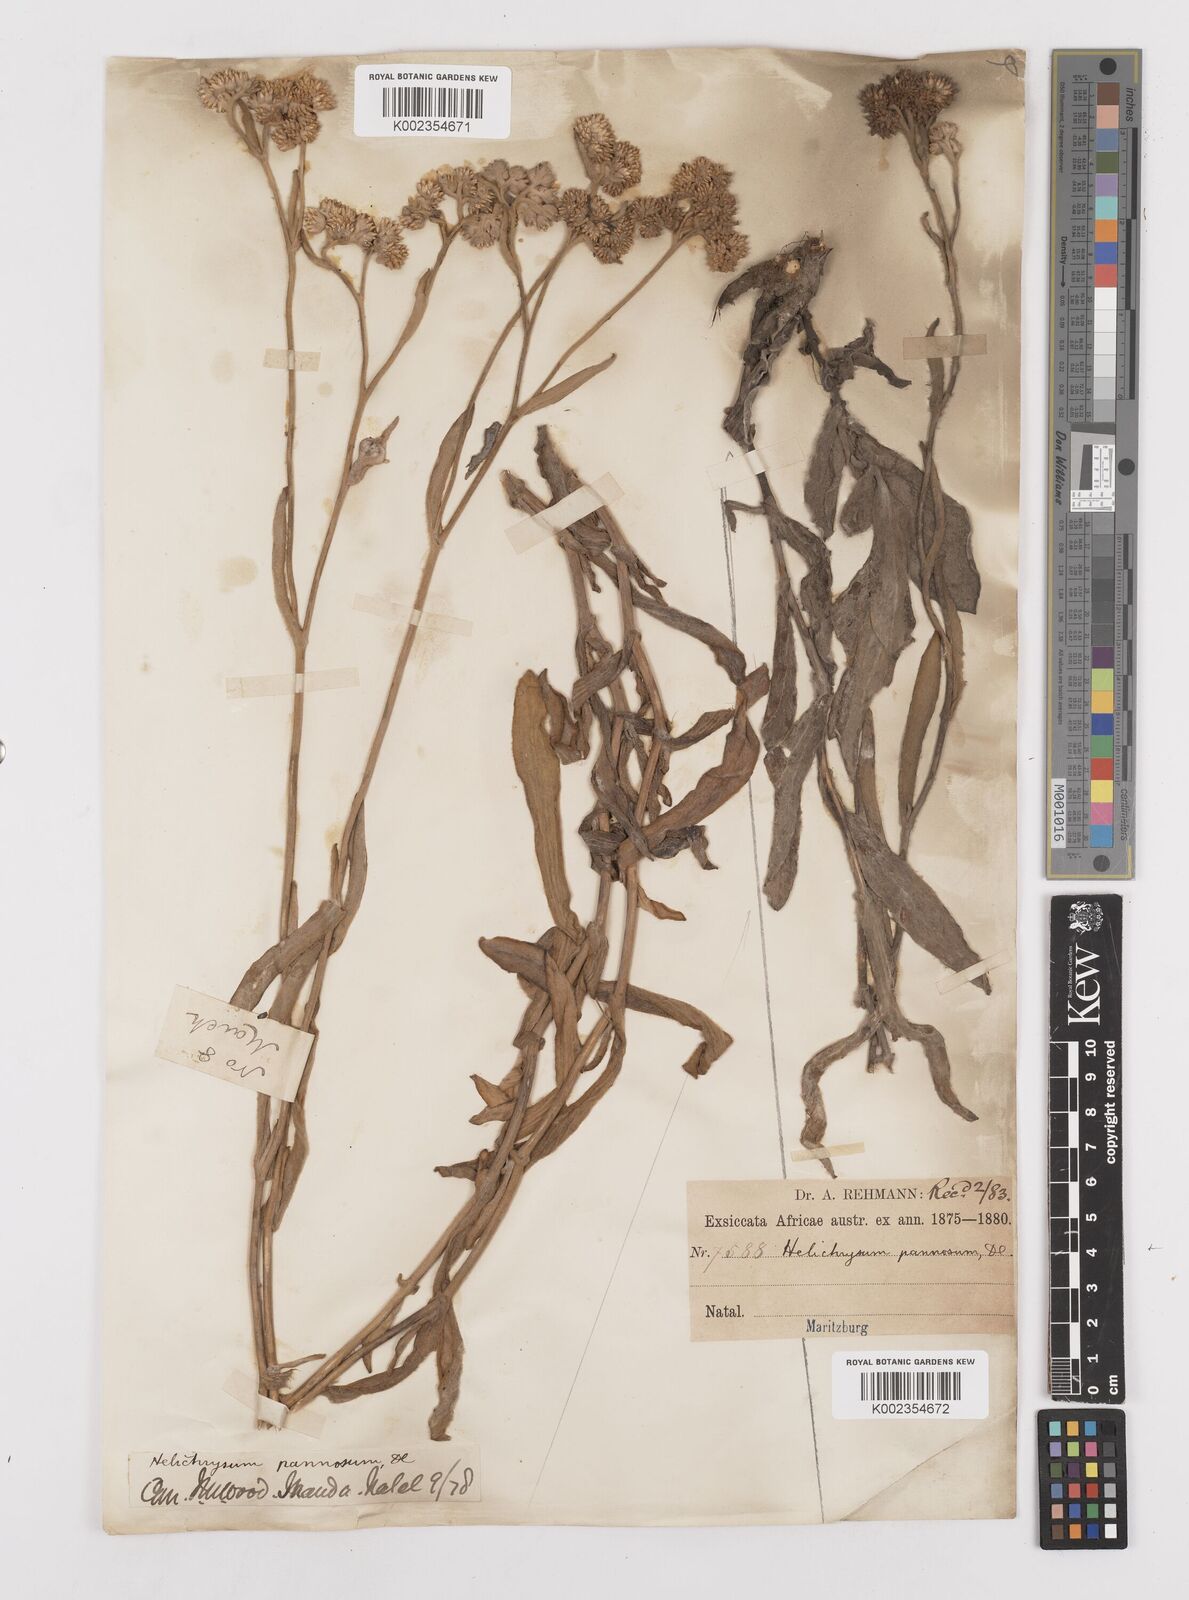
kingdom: Plantae
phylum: Tracheophyta
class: Magnoliopsida
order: Asterales
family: Asteraceae
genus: Helichrysum
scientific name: Helichrysum pannosum
